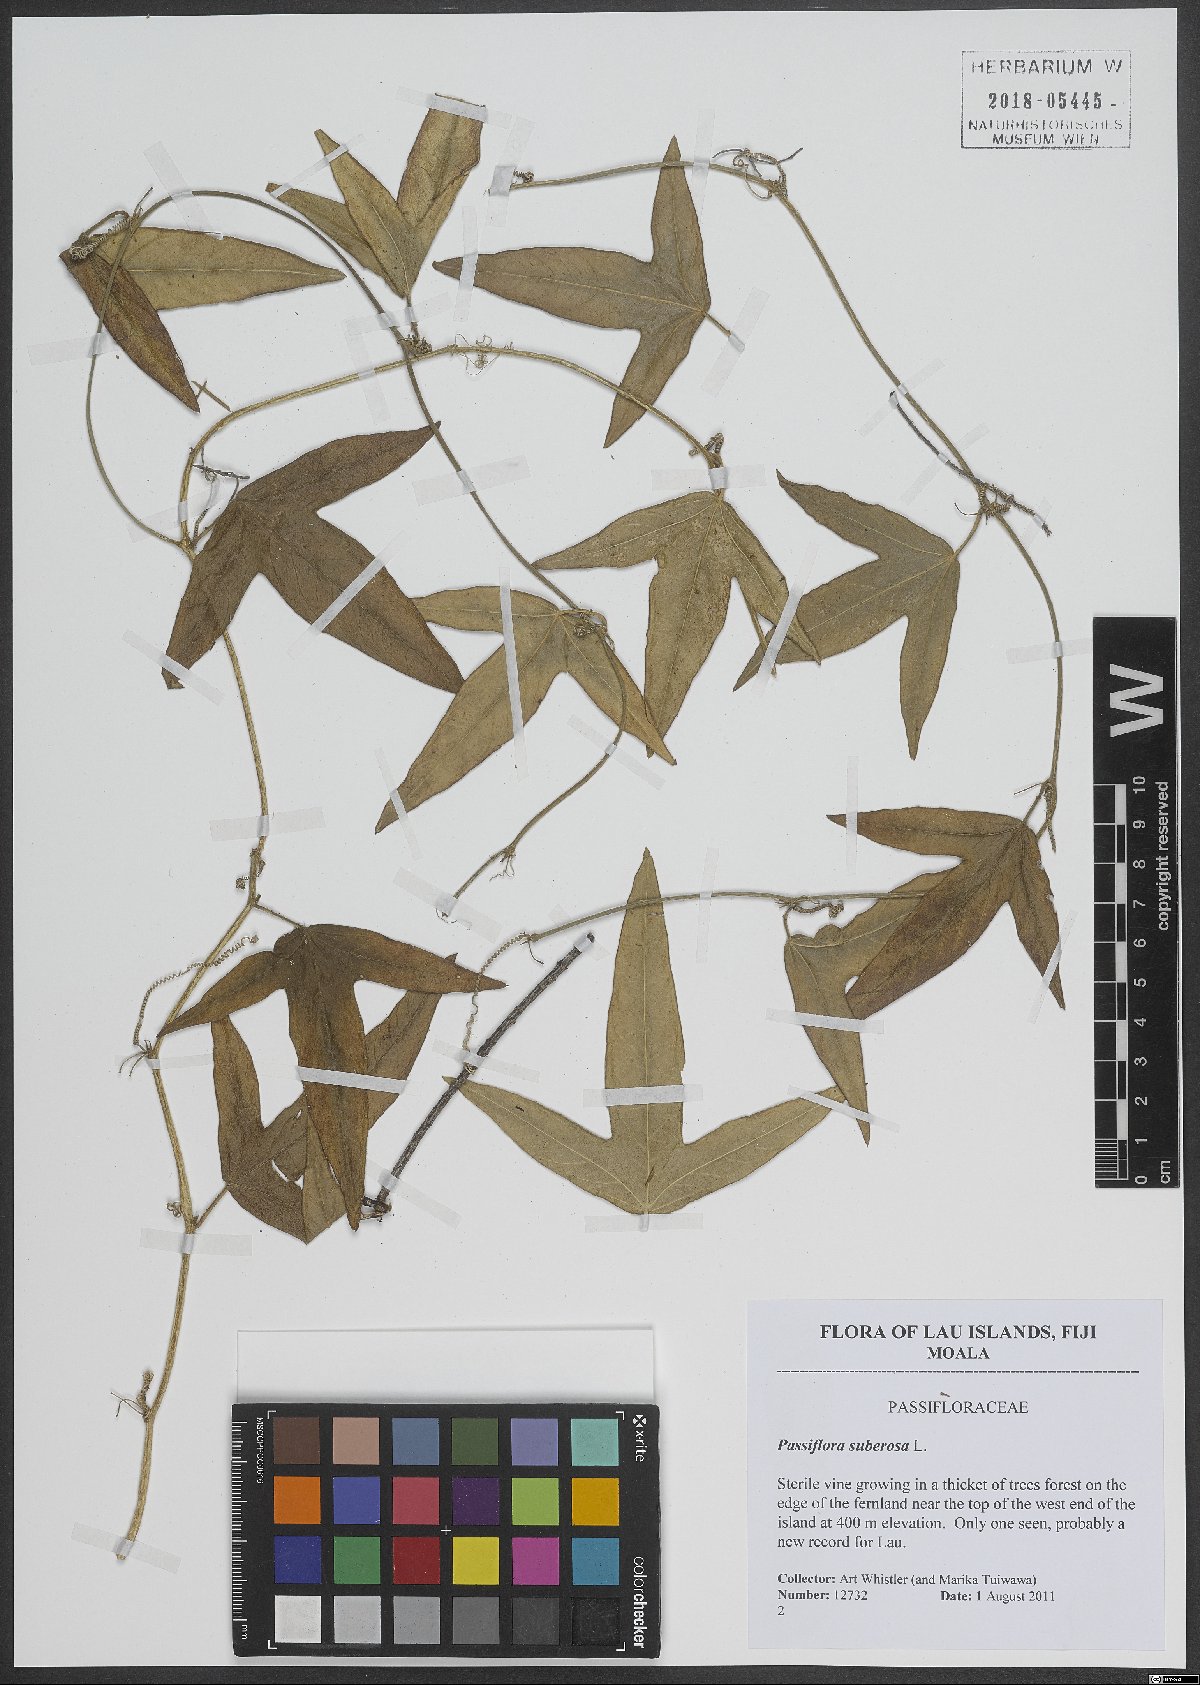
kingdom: Plantae
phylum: Tracheophyta
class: Magnoliopsida
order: Malpighiales
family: Passifloraceae
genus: Passiflora
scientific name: Passiflora suberosa
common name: Wild passionfruit
